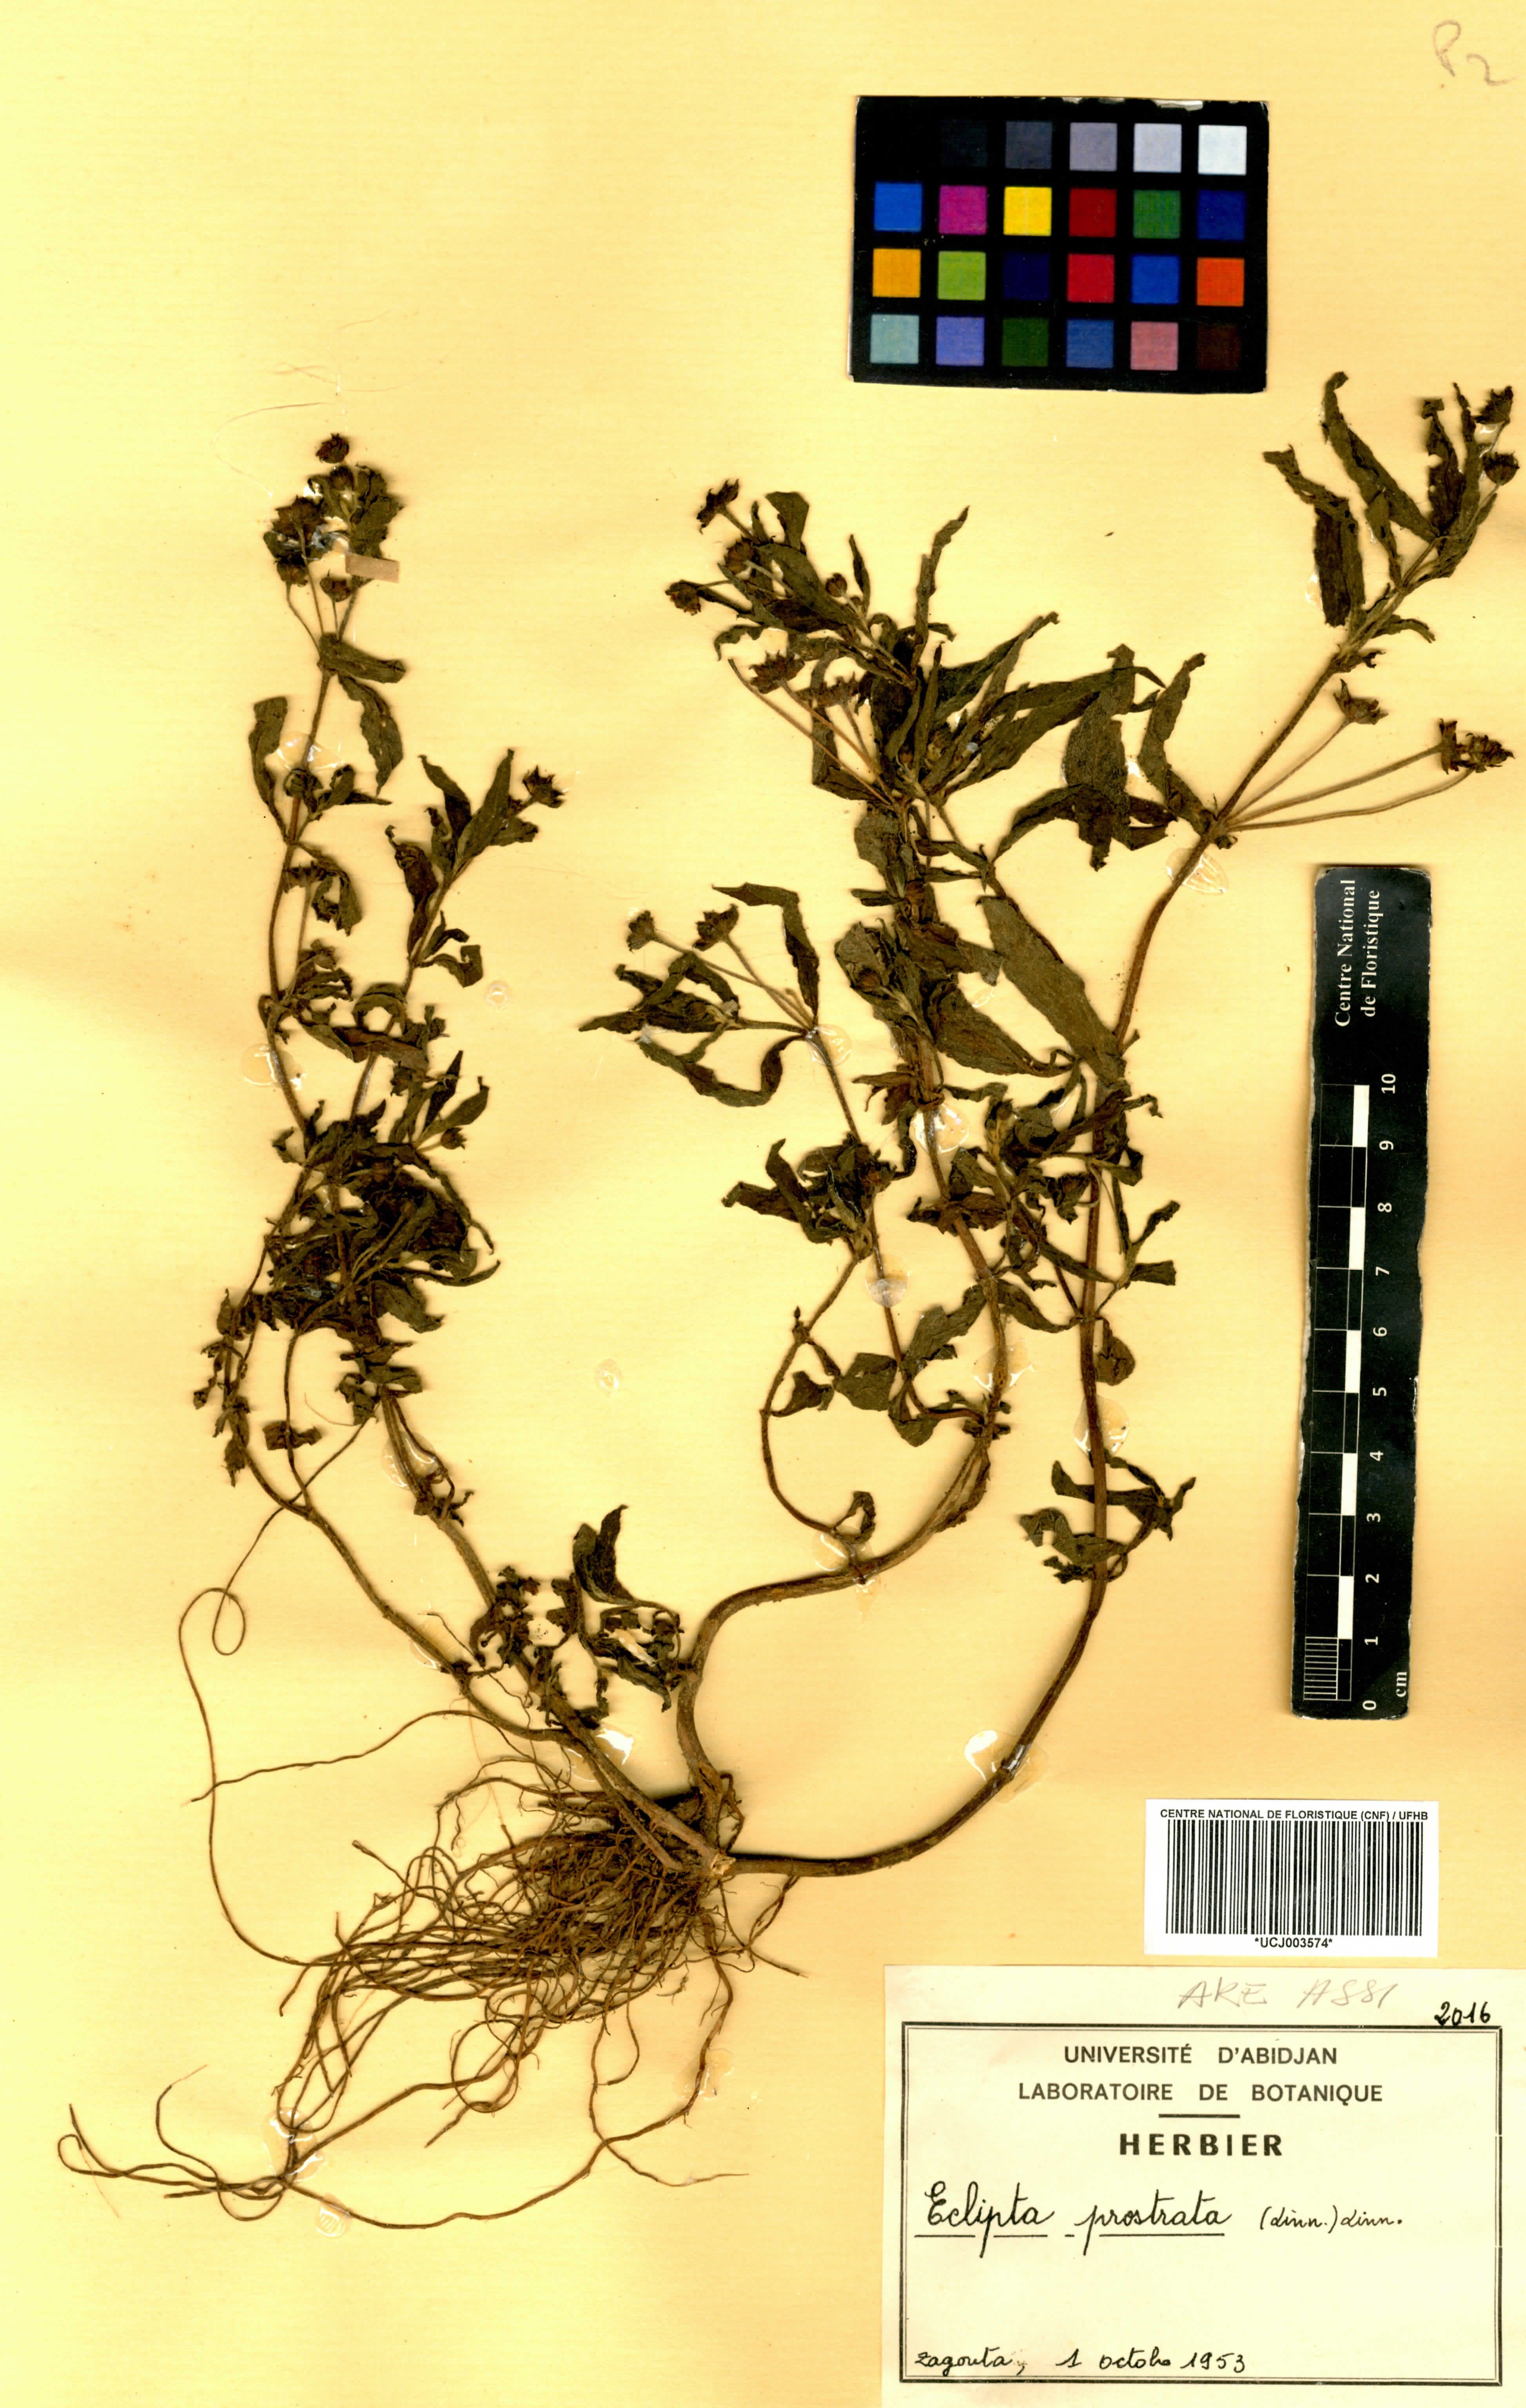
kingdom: Plantae
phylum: Tracheophyta
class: Magnoliopsida
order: Asterales
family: Asteraceae
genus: Eclipta
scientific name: Eclipta prostrata
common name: False daisy
